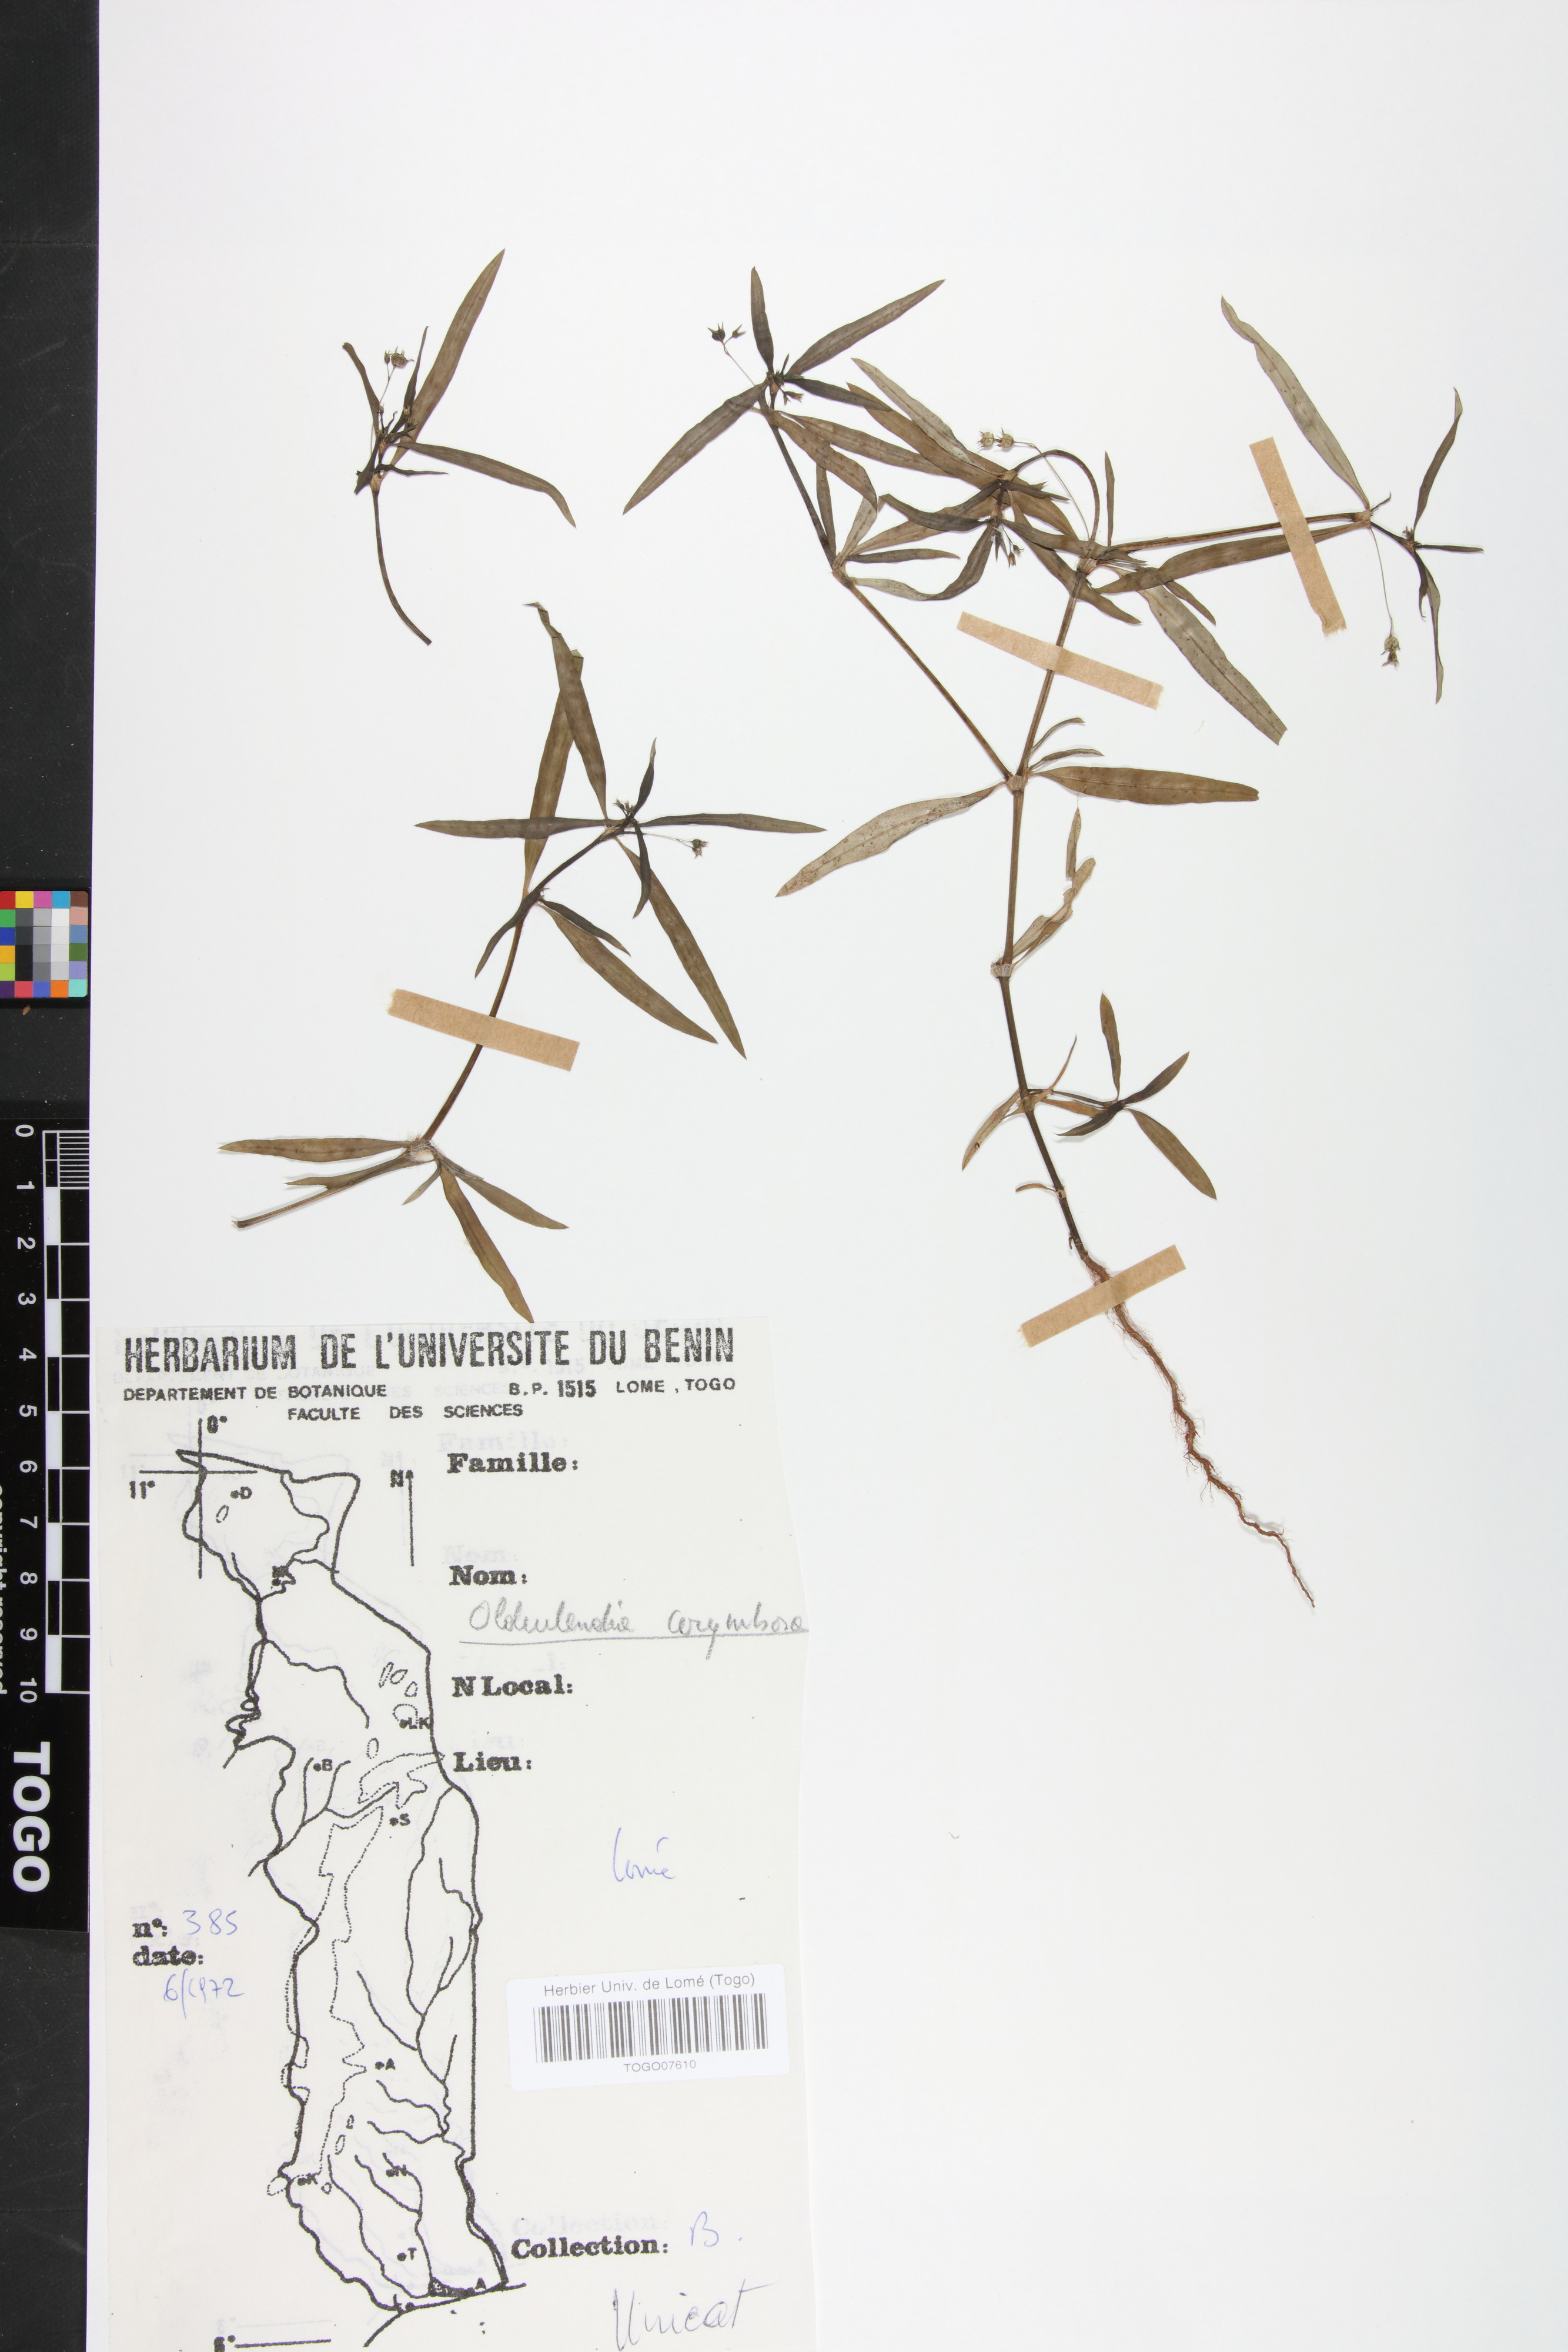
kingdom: Plantae
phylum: Tracheophyta
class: Magnoliopsida
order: Gentianales
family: Rubiaceae
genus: Oldenlandia
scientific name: Oldenlandia corymbosa
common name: Flat-top mille graines
